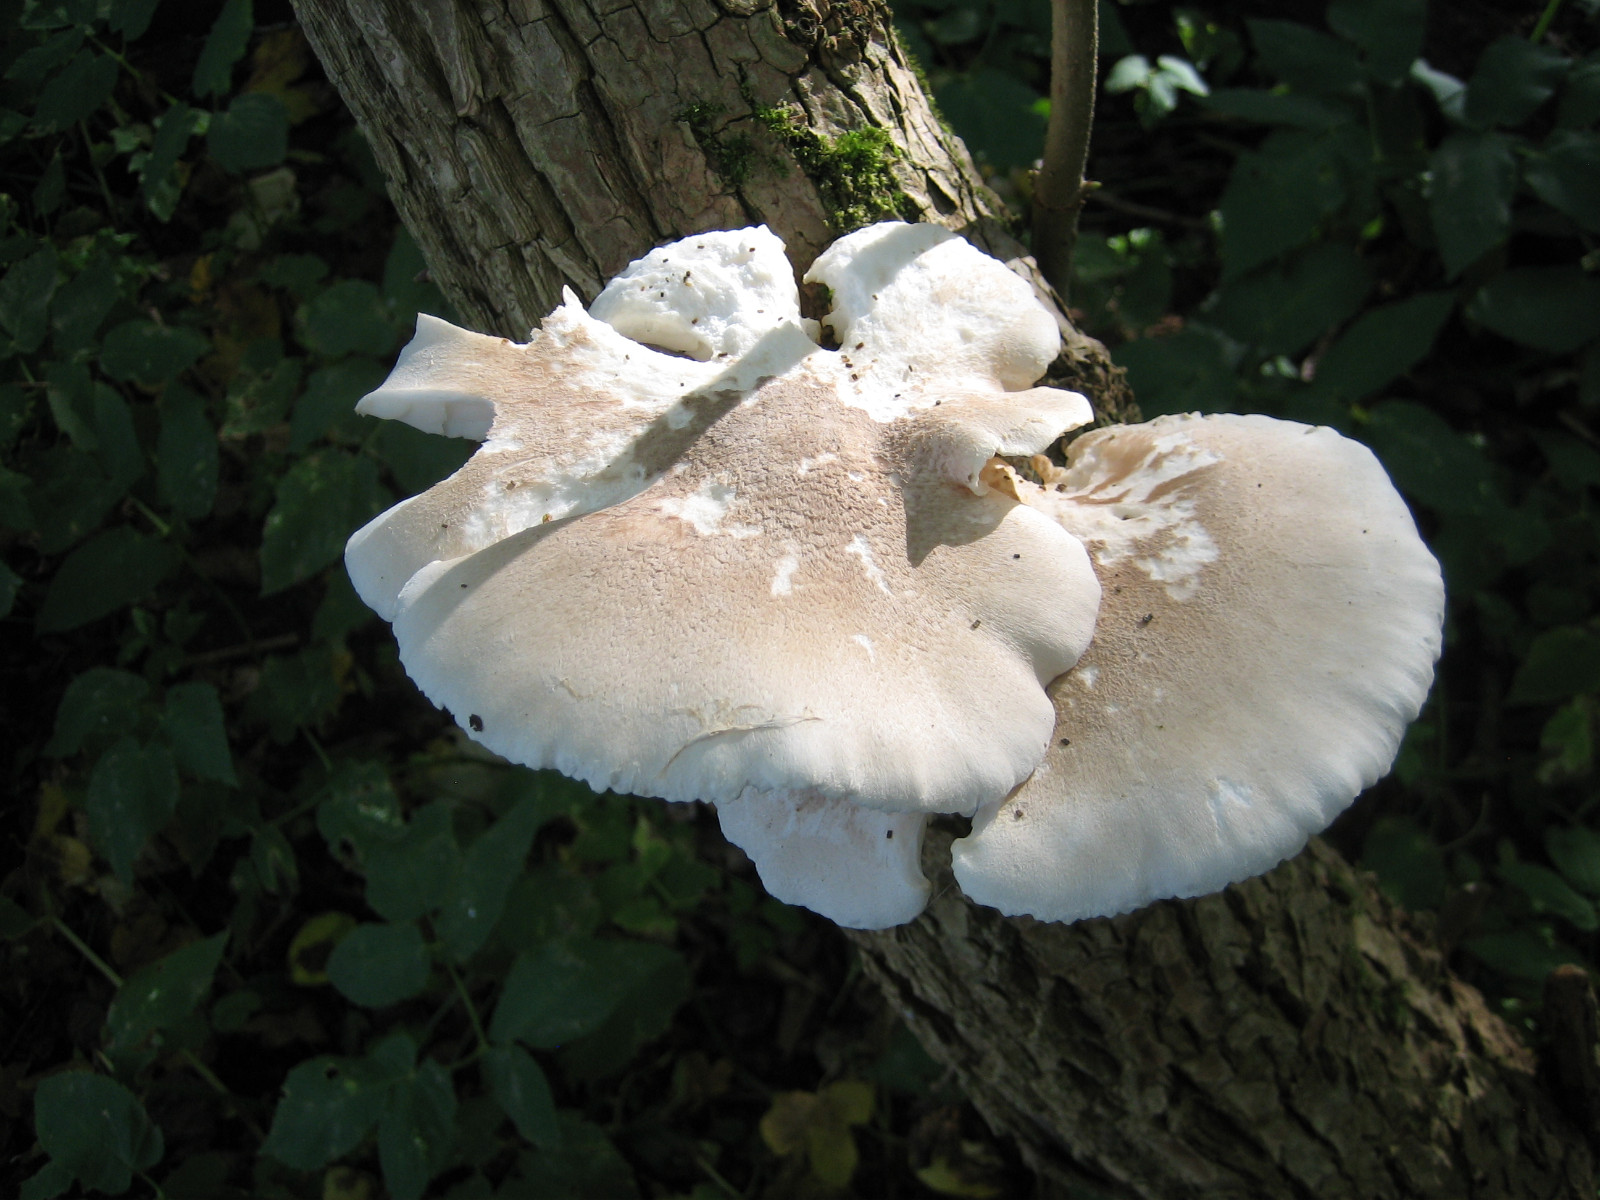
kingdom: Fungi
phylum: Basidiomycota
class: Agaricomycetes
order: Agaricales
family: Pleurotaceae
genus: Pleurotus
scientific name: Pleurotus dryinus
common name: korkagtig østershat
